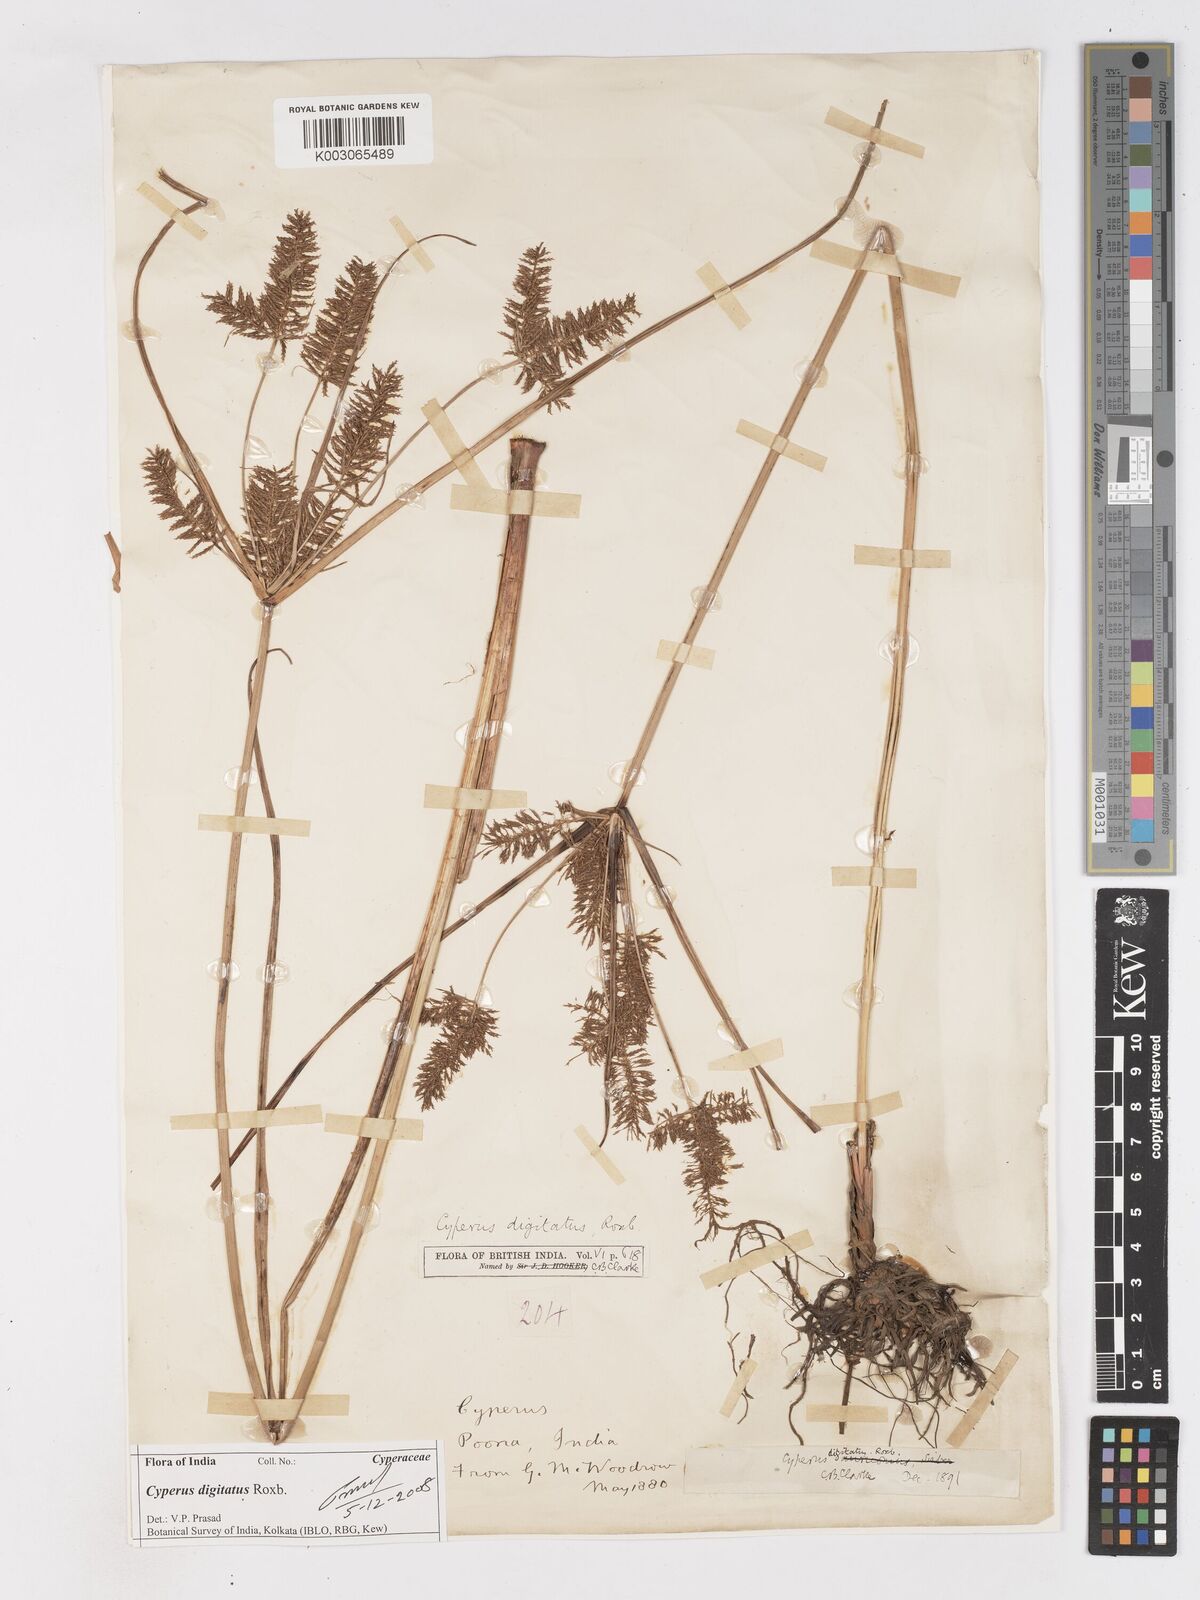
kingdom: Plantae
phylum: Tracheophyta
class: Liliopsida
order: Poales
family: Cyperaceae
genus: Cyperus
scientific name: Cyperus digitatus
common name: Finger flatsedge
